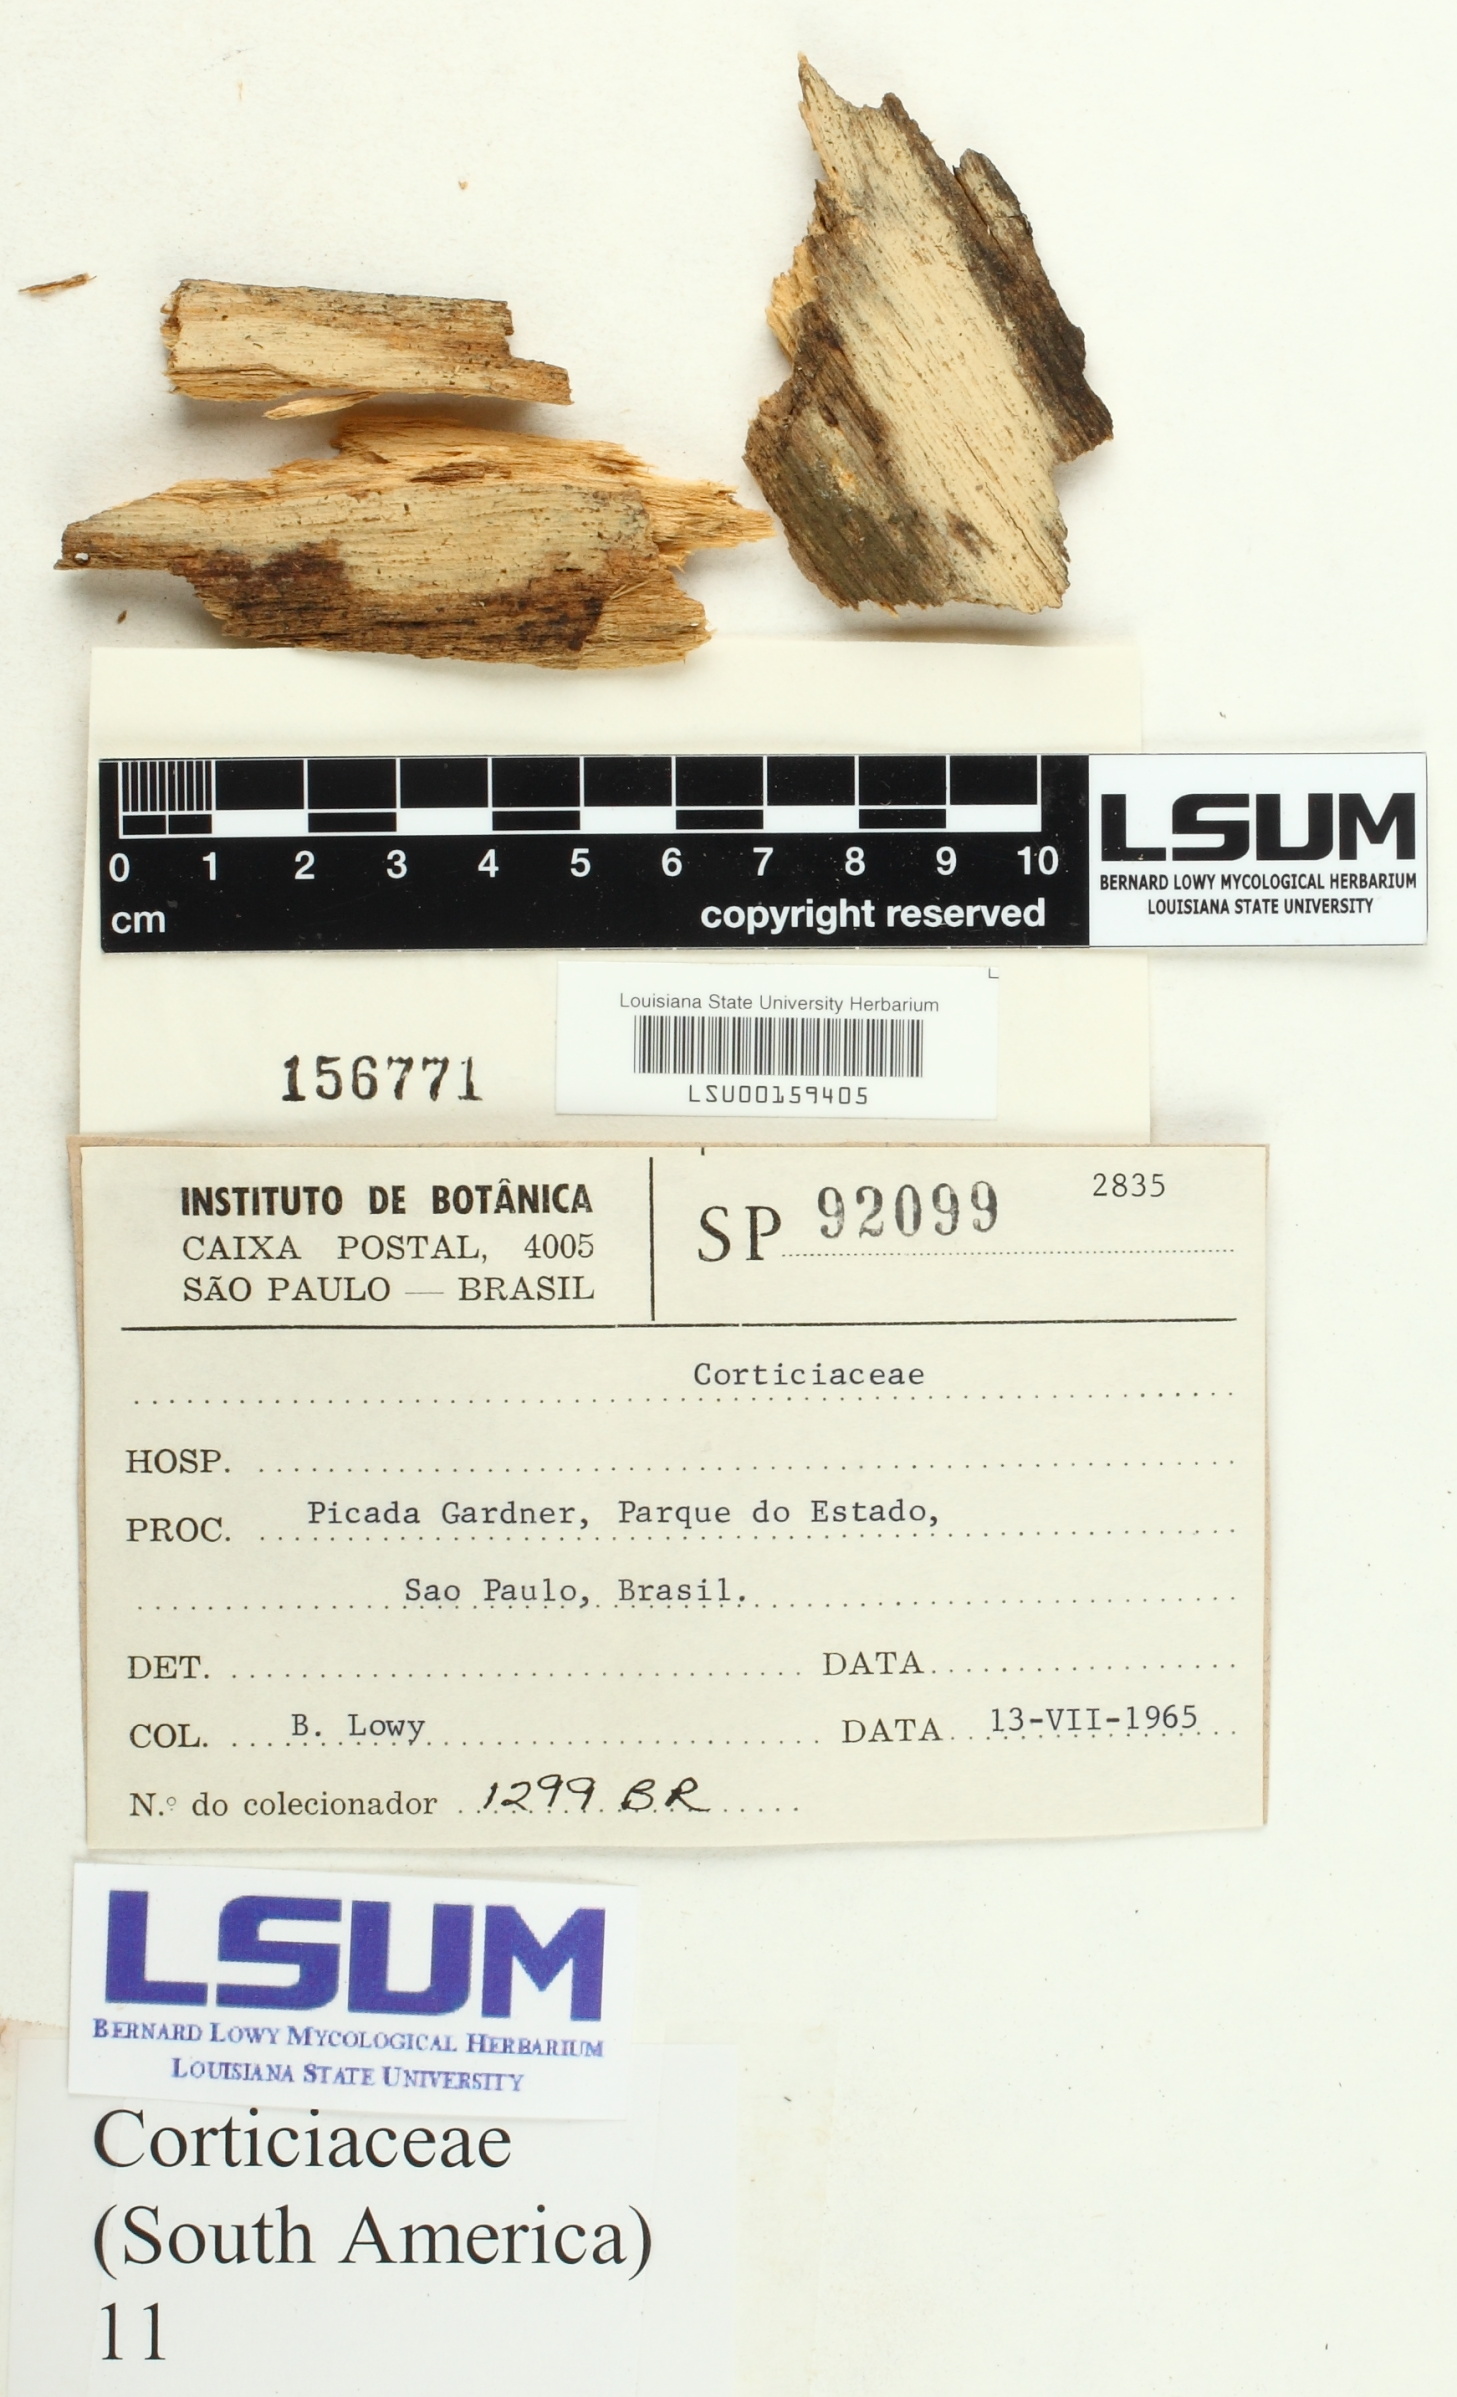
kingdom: Fungi
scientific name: Fungi
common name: Fungi
